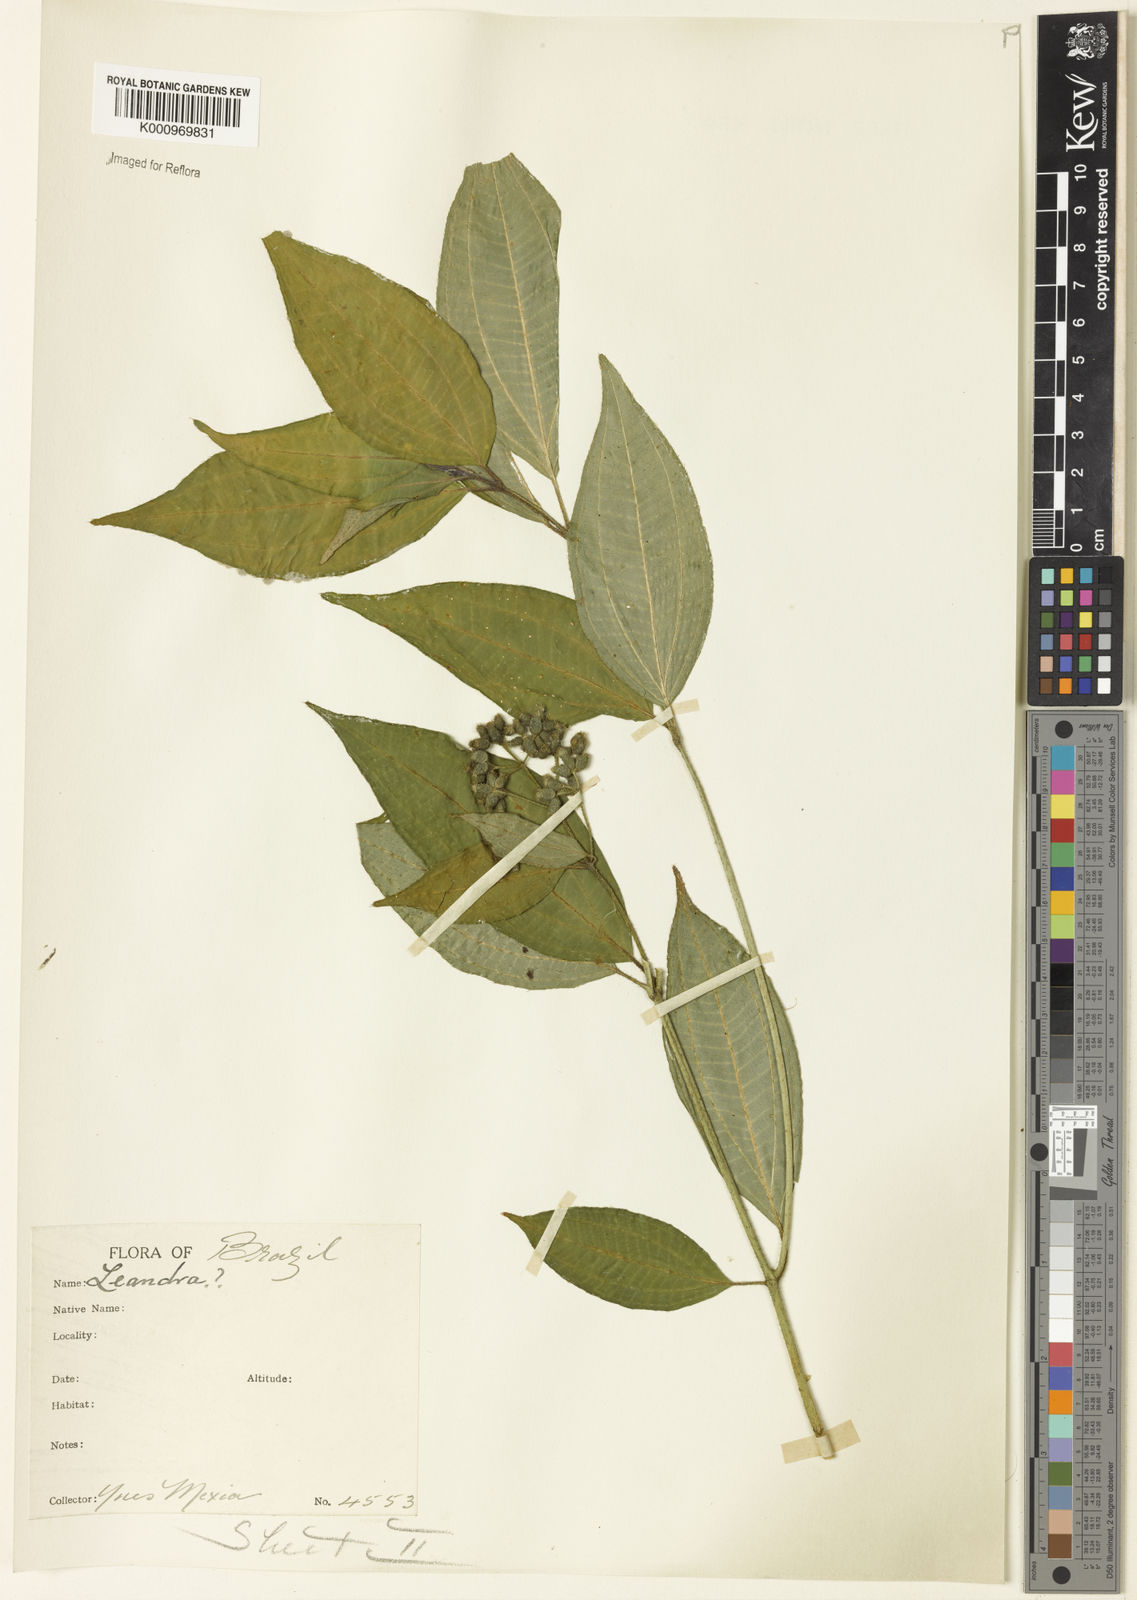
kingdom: Plantae
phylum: Tracheophyta
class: Magnoliopsida
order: Myrtales
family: Melastomataceae
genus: Miconia
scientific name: Miconia
